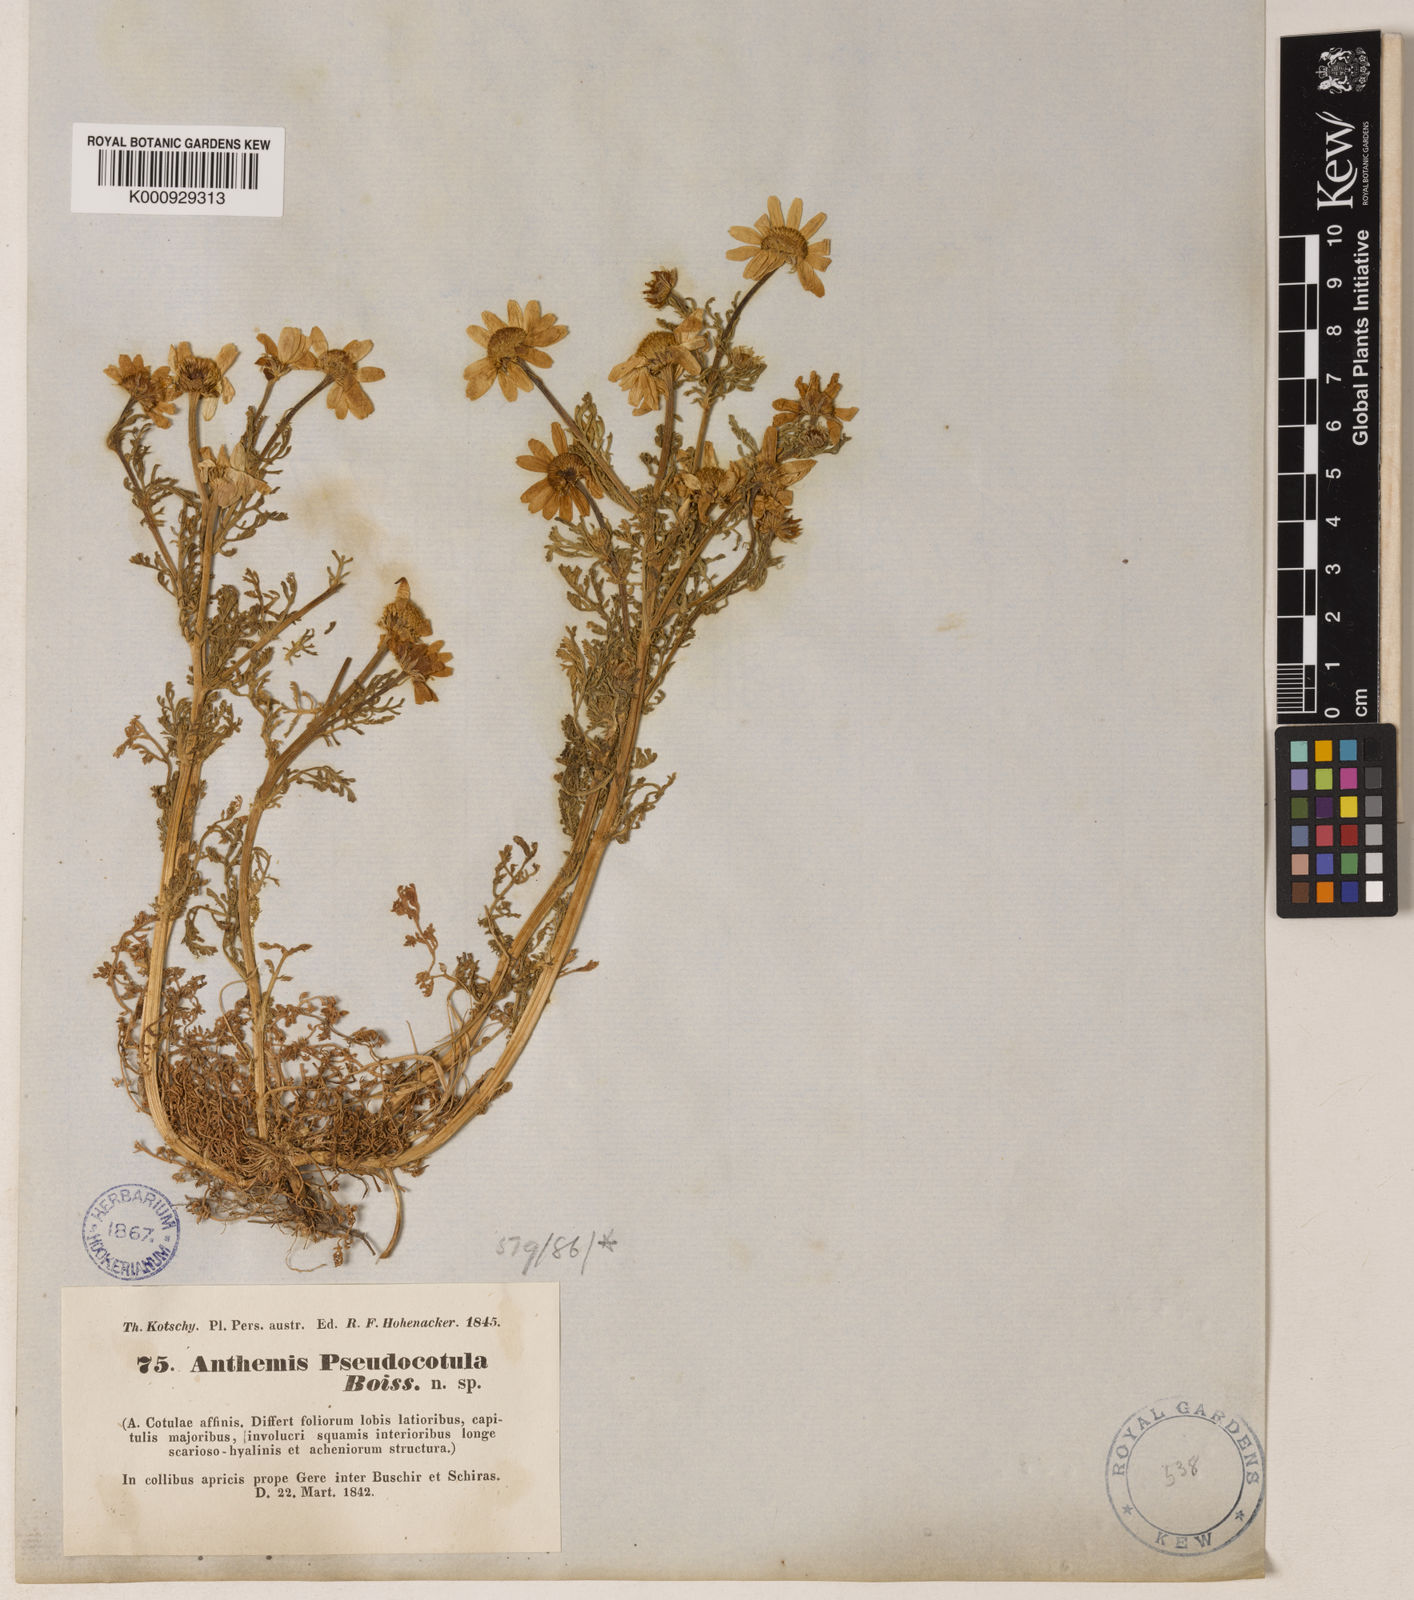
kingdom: Plantae
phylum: Tracheophyta
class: Magnoliopsida
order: Asterales
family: Asteraceae
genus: Anthemis
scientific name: Anthemis pseudocotula
